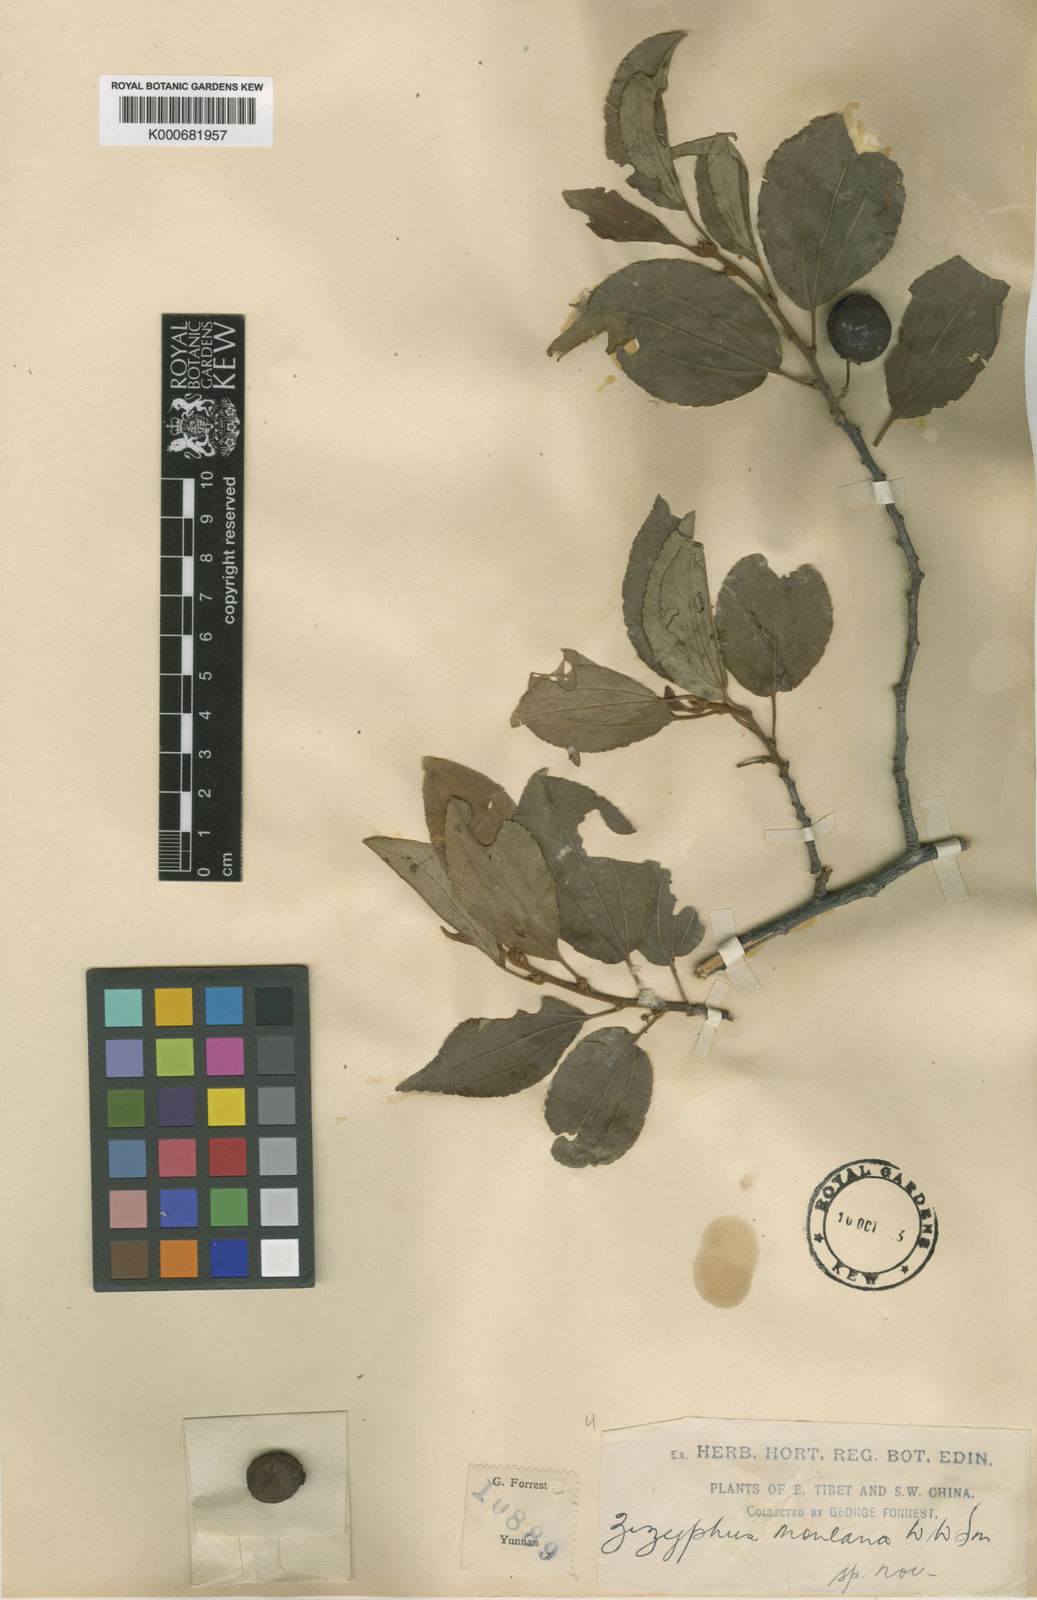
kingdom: Plantae
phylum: Tracheophyta
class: Magnoliopsida
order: Rosales
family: Rhamnaceae
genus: Ziziphus
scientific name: Ziziphus montana
